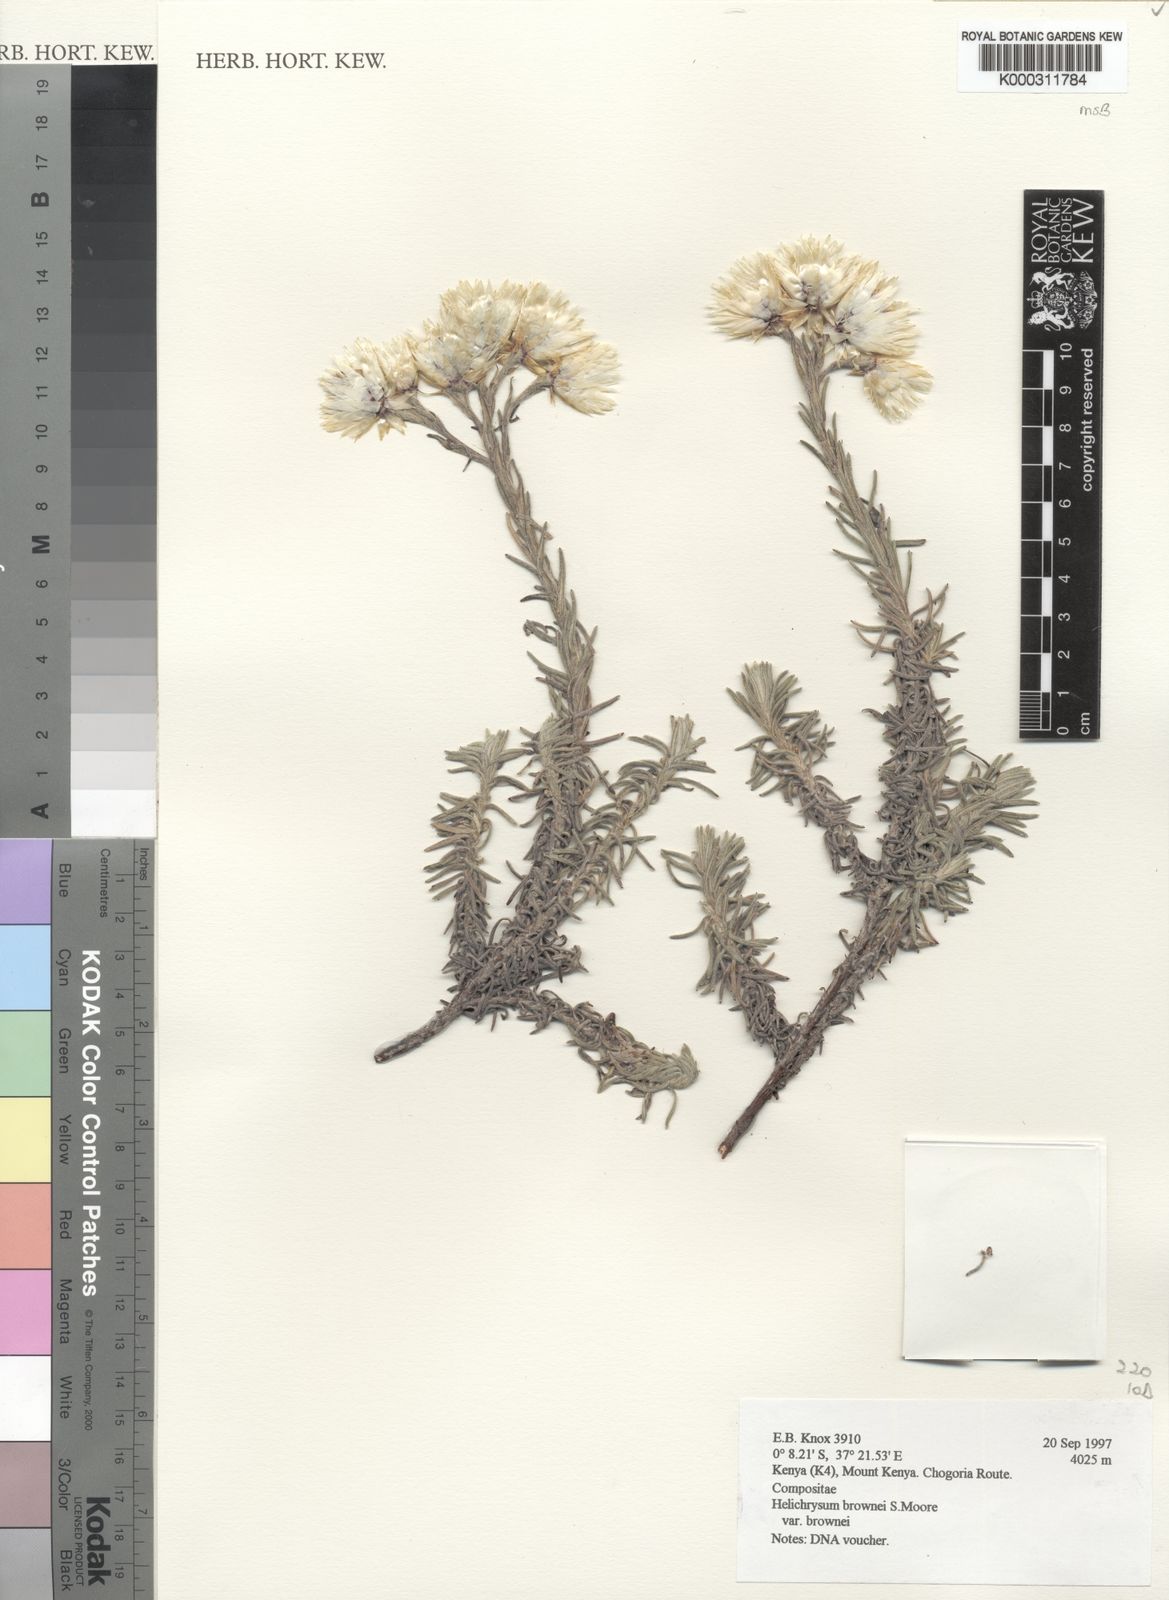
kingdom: Plantae
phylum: Tracheophyta
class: Magnoliopsida
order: Asterales
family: Asteraceae
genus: Helichrysum
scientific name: Helichrysum brownei
